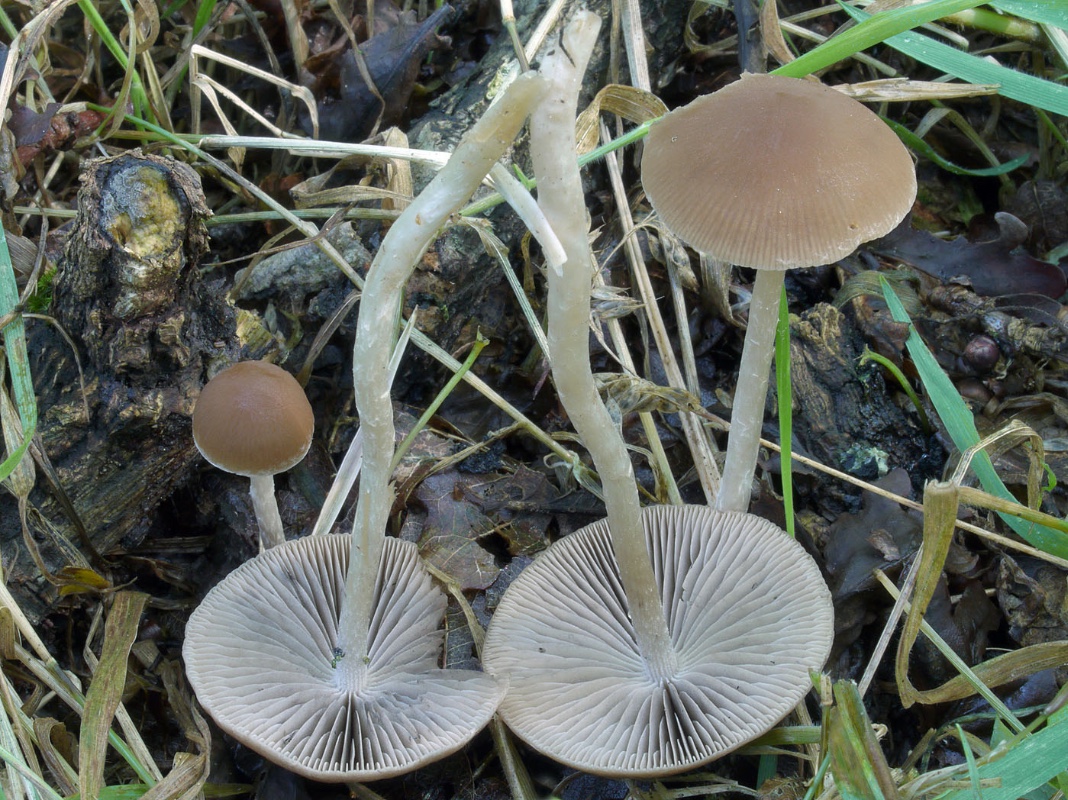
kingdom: Fungi
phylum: Basidiomycota
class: Agaricomycetes
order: Agaricales
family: Psathyrellaceae
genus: Psathyrella
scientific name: Psathyrella lutensis
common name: hjulspor-mørkhat
